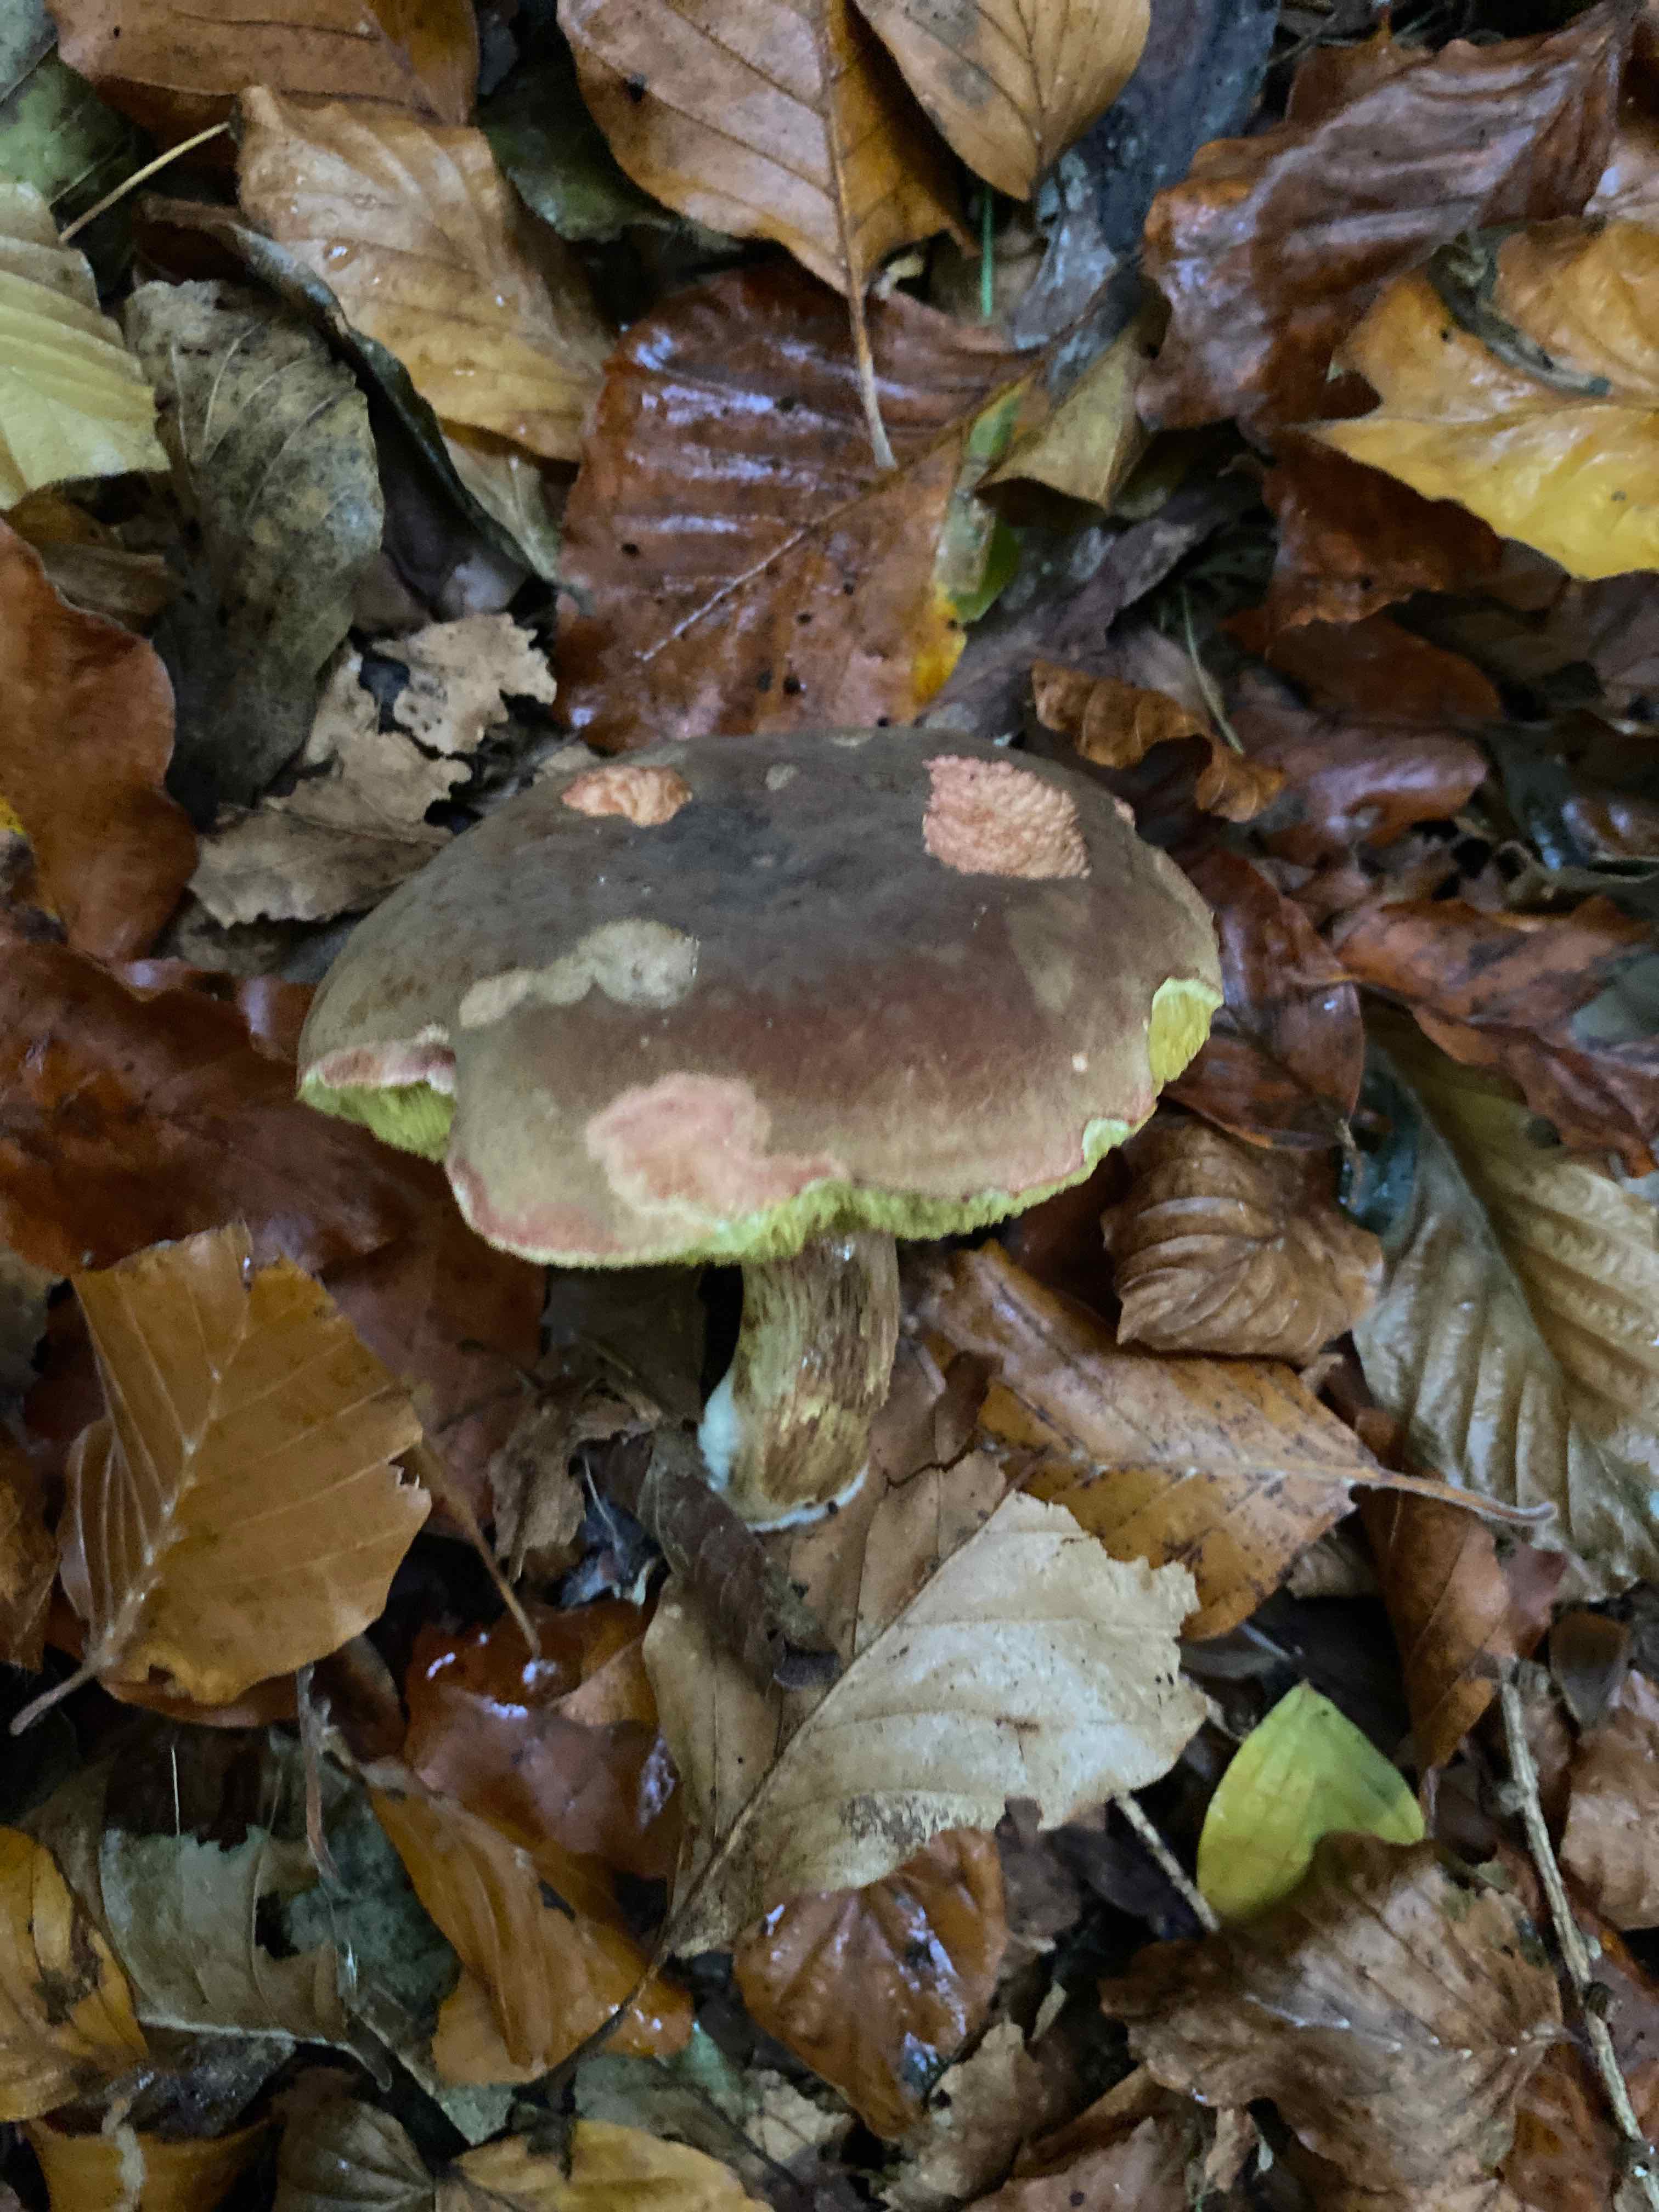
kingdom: Fungi
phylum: Basidiomycota
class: Agaricomycetes
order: Boletales
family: Boletaceae
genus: Xerocomellus
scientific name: Xerocomellus pruinatus
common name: dugget rørhat
